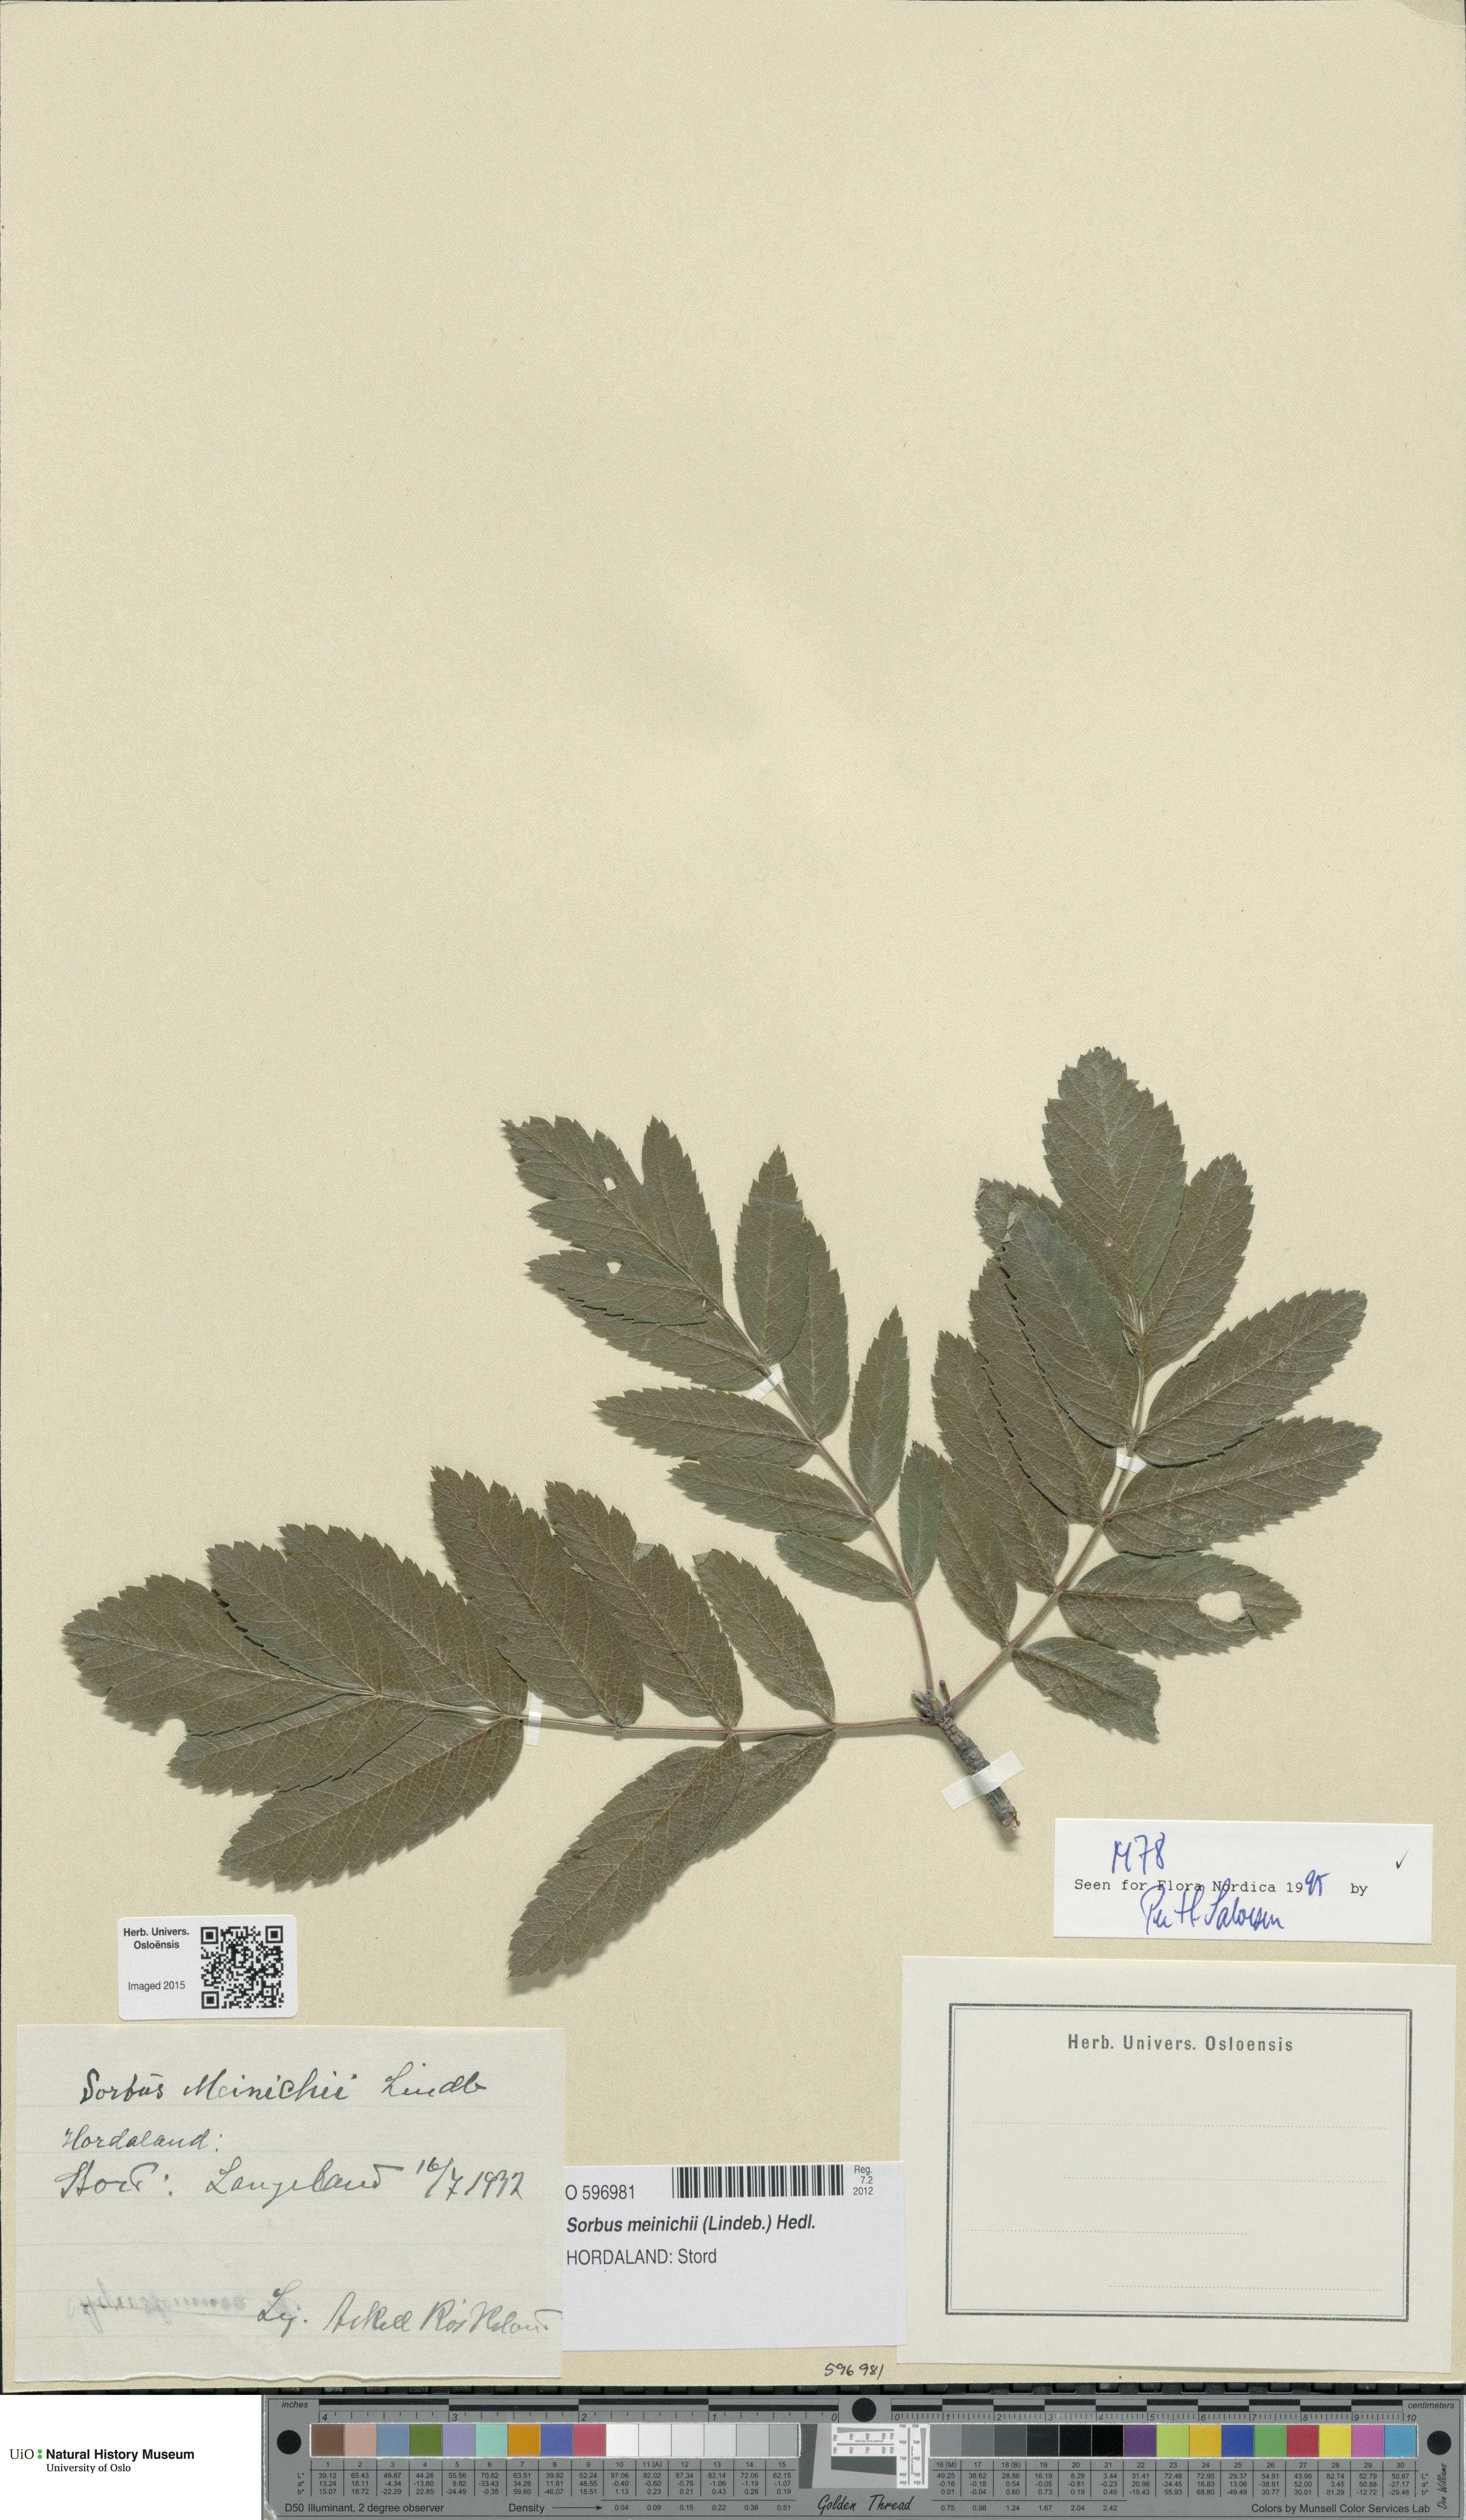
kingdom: Plantae
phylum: Tracheophyta
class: Magnoliopsida
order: Rosales
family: Rosaceae
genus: Hedlundia
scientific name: Hedlundia meinichii
